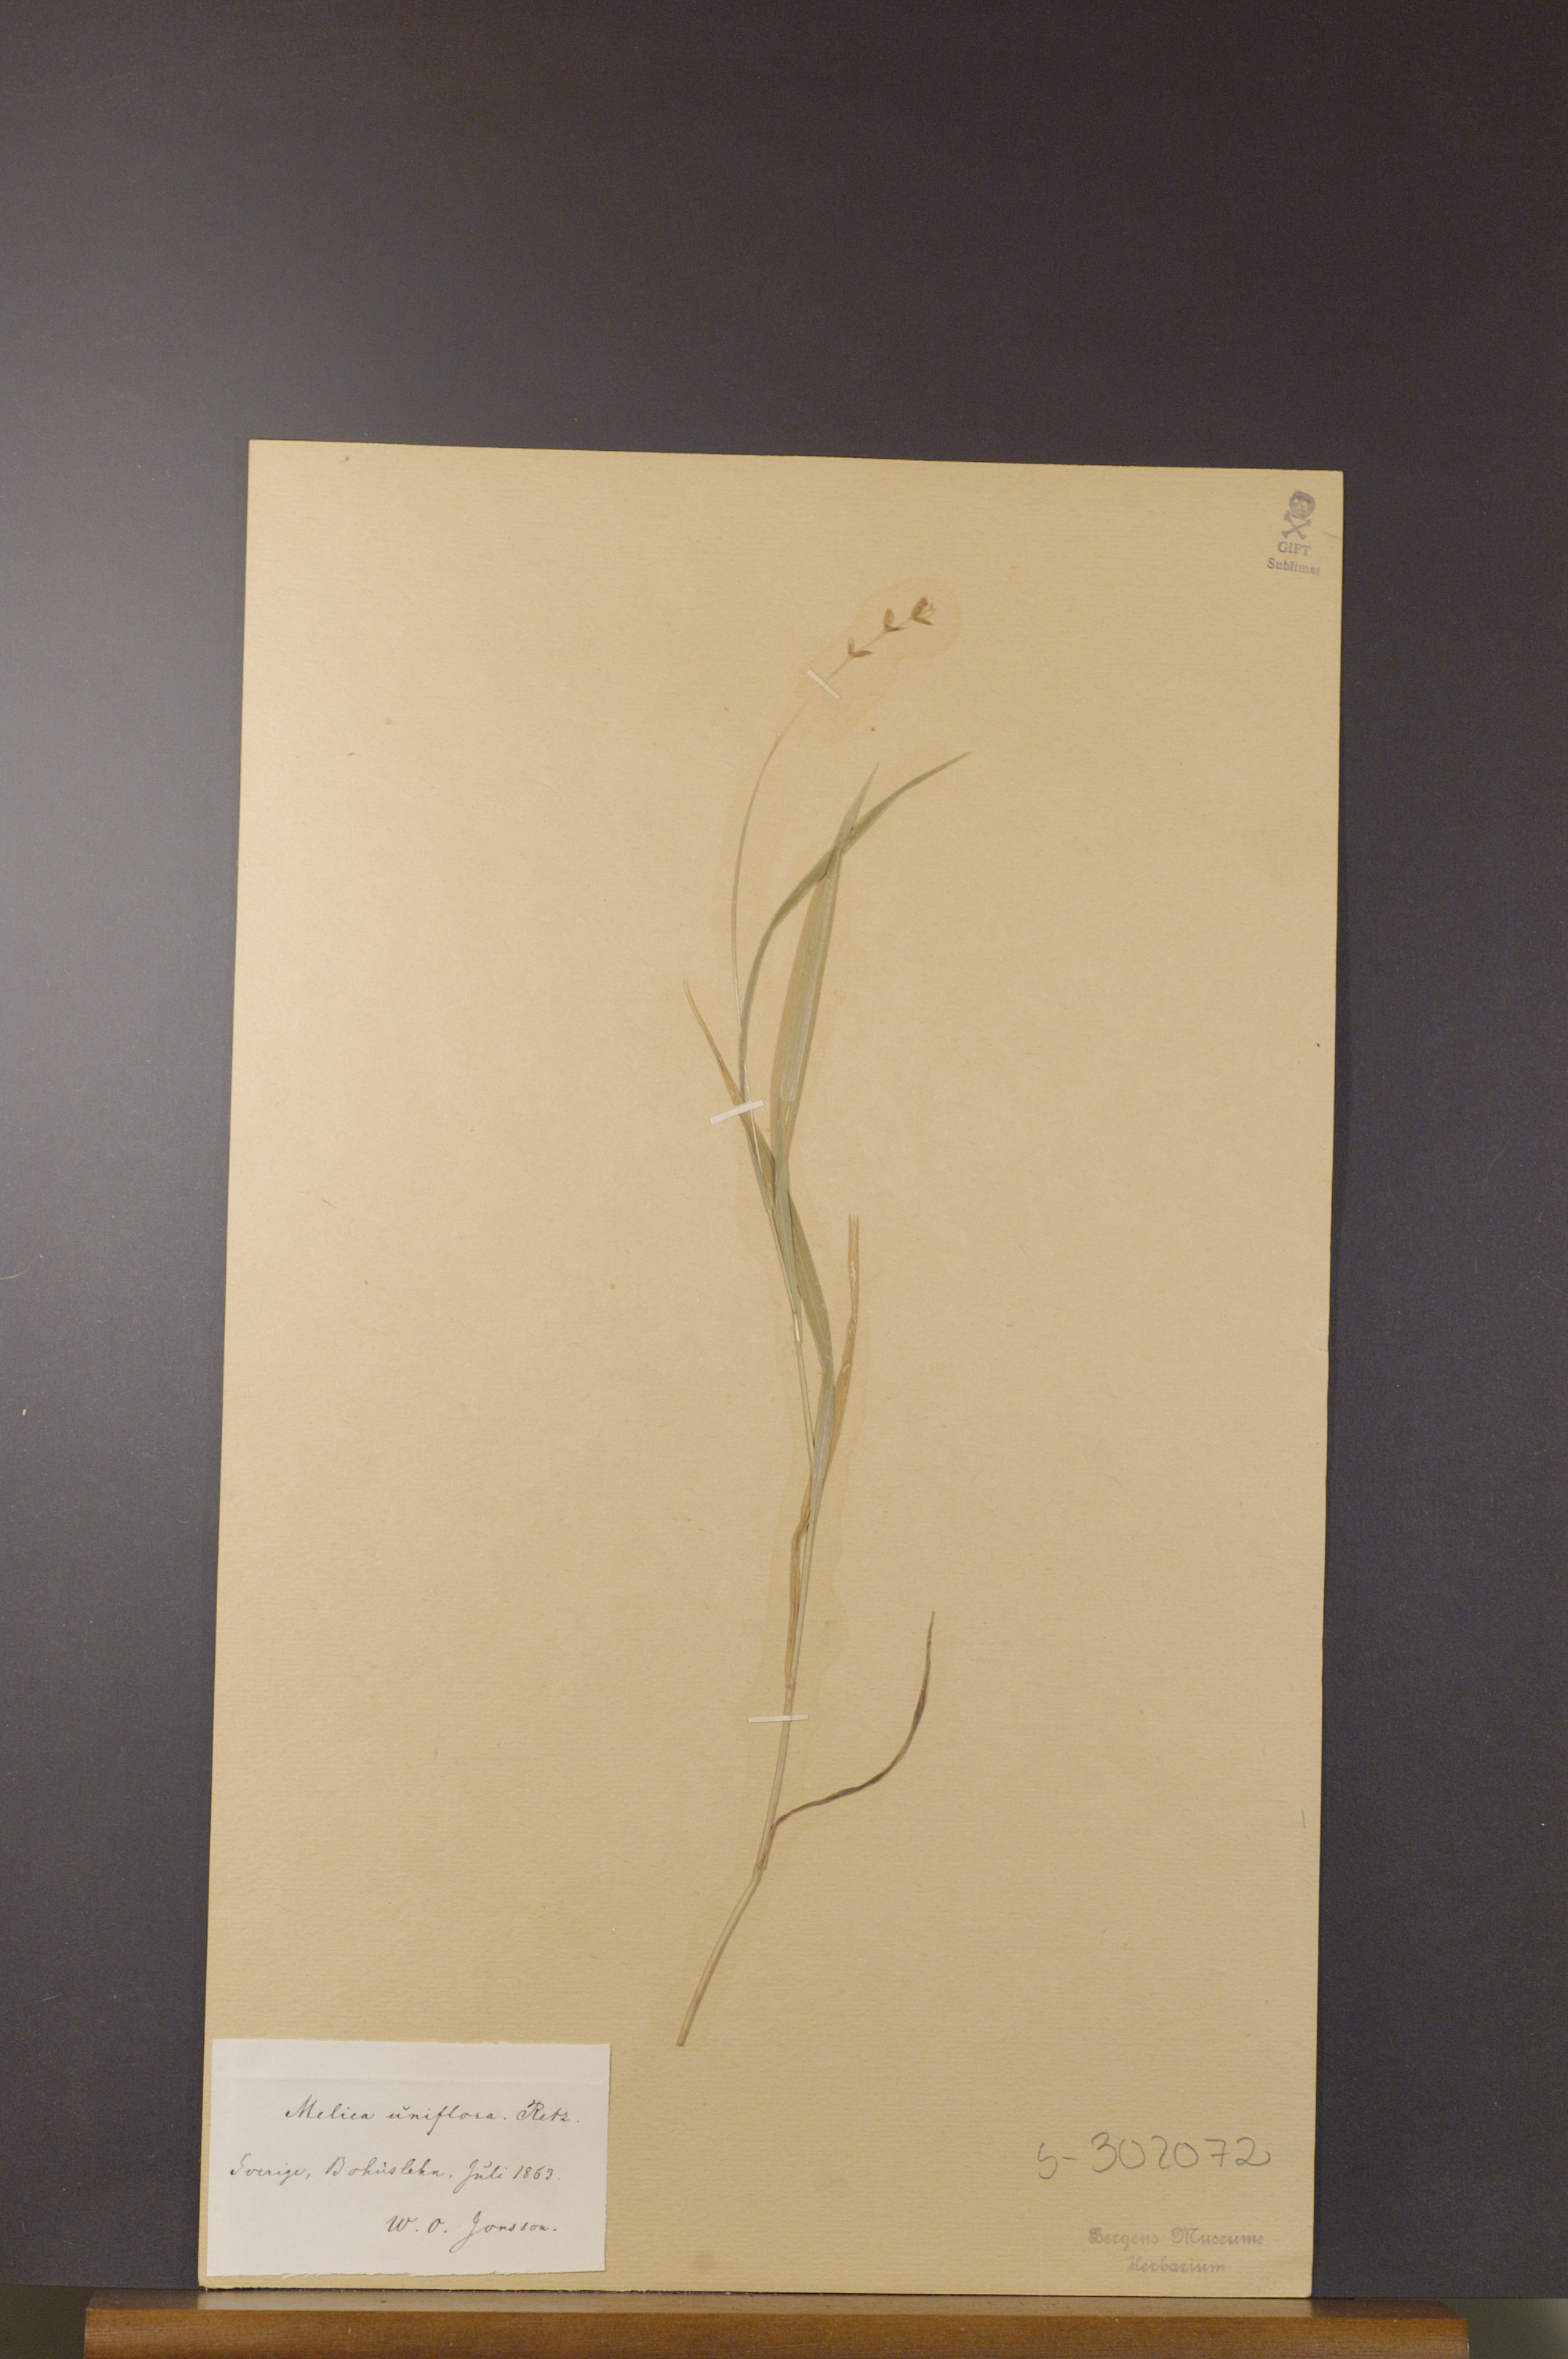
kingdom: Plantae
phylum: Tracheophyta
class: Liliopsida
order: Poales
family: Poaceae
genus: Melica
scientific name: Melica uniflora
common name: Wood melick
